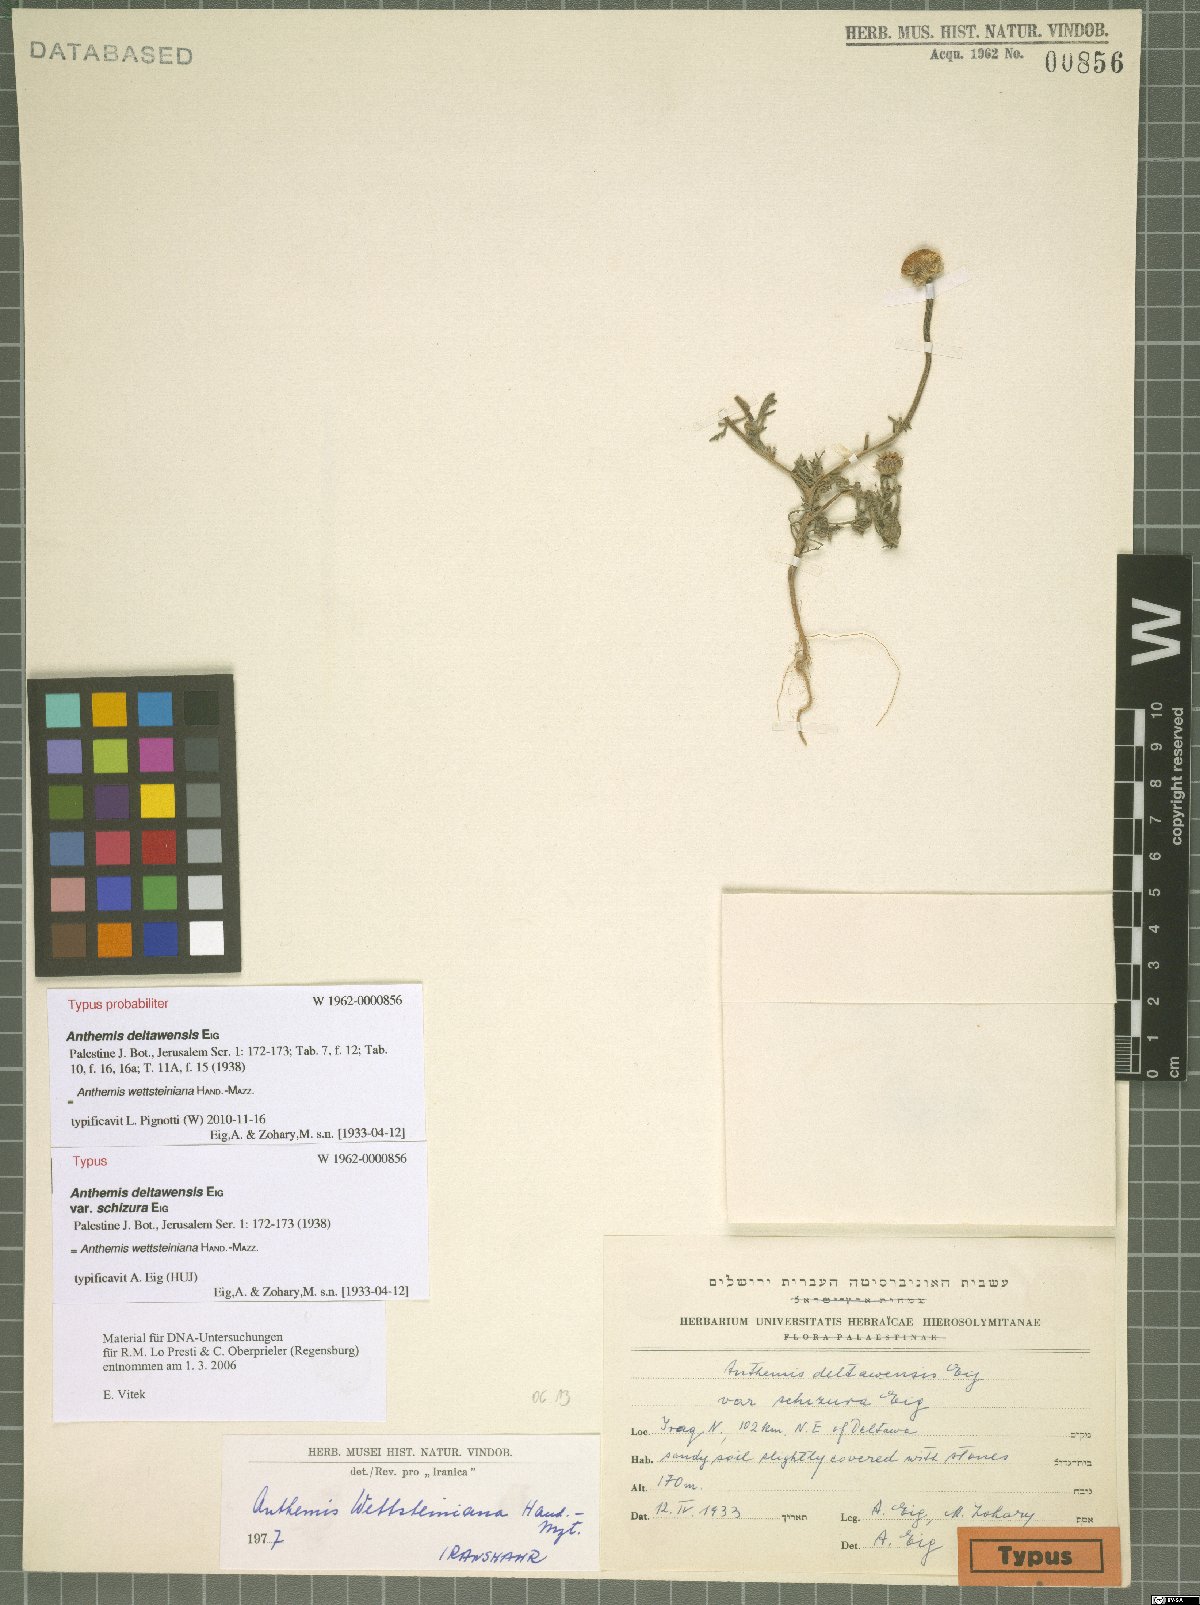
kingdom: Plantae
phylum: Tracheophyta
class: Magnoliopsida
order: Asterales
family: Asteraceae
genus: Anthemis
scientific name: Anthemis wettsteiniana
